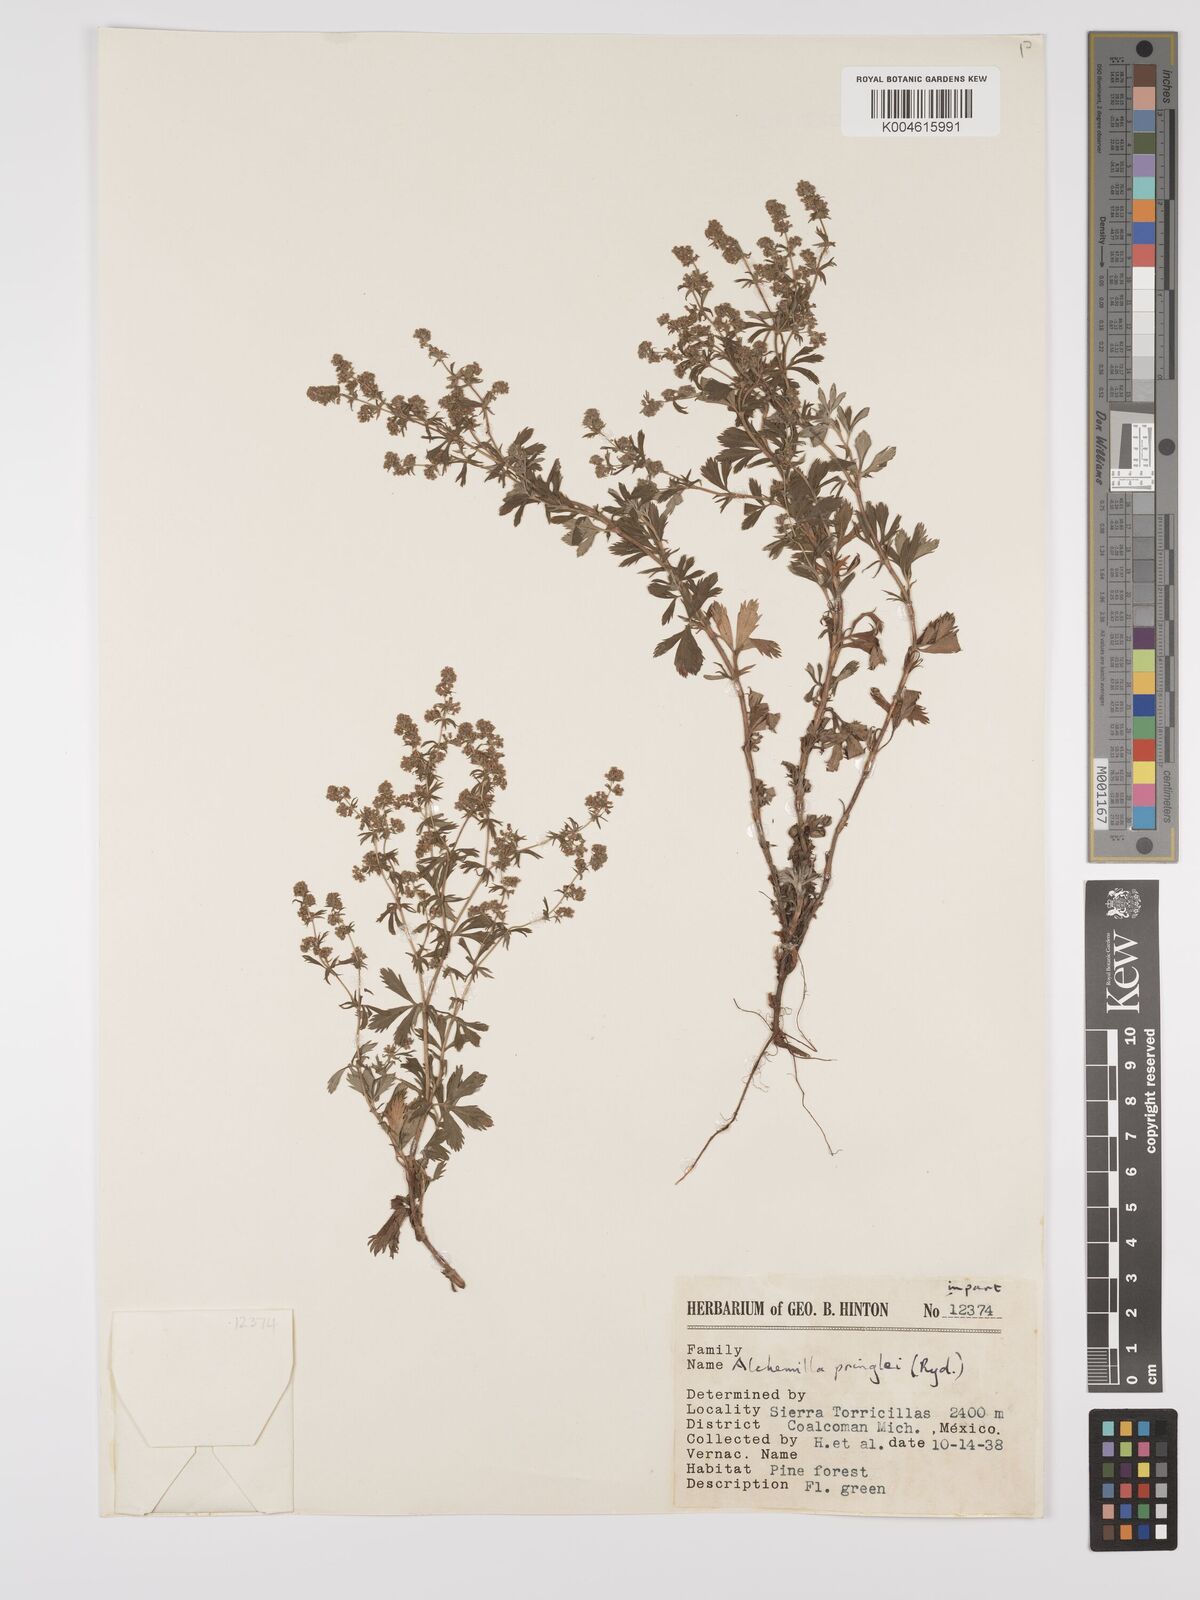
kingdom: Plantae
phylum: Tracheophyta
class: Magnoliopsida
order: Rosales
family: Rosaceae
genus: Lachemilla
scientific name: Lachemilla sibbaldiifolia
